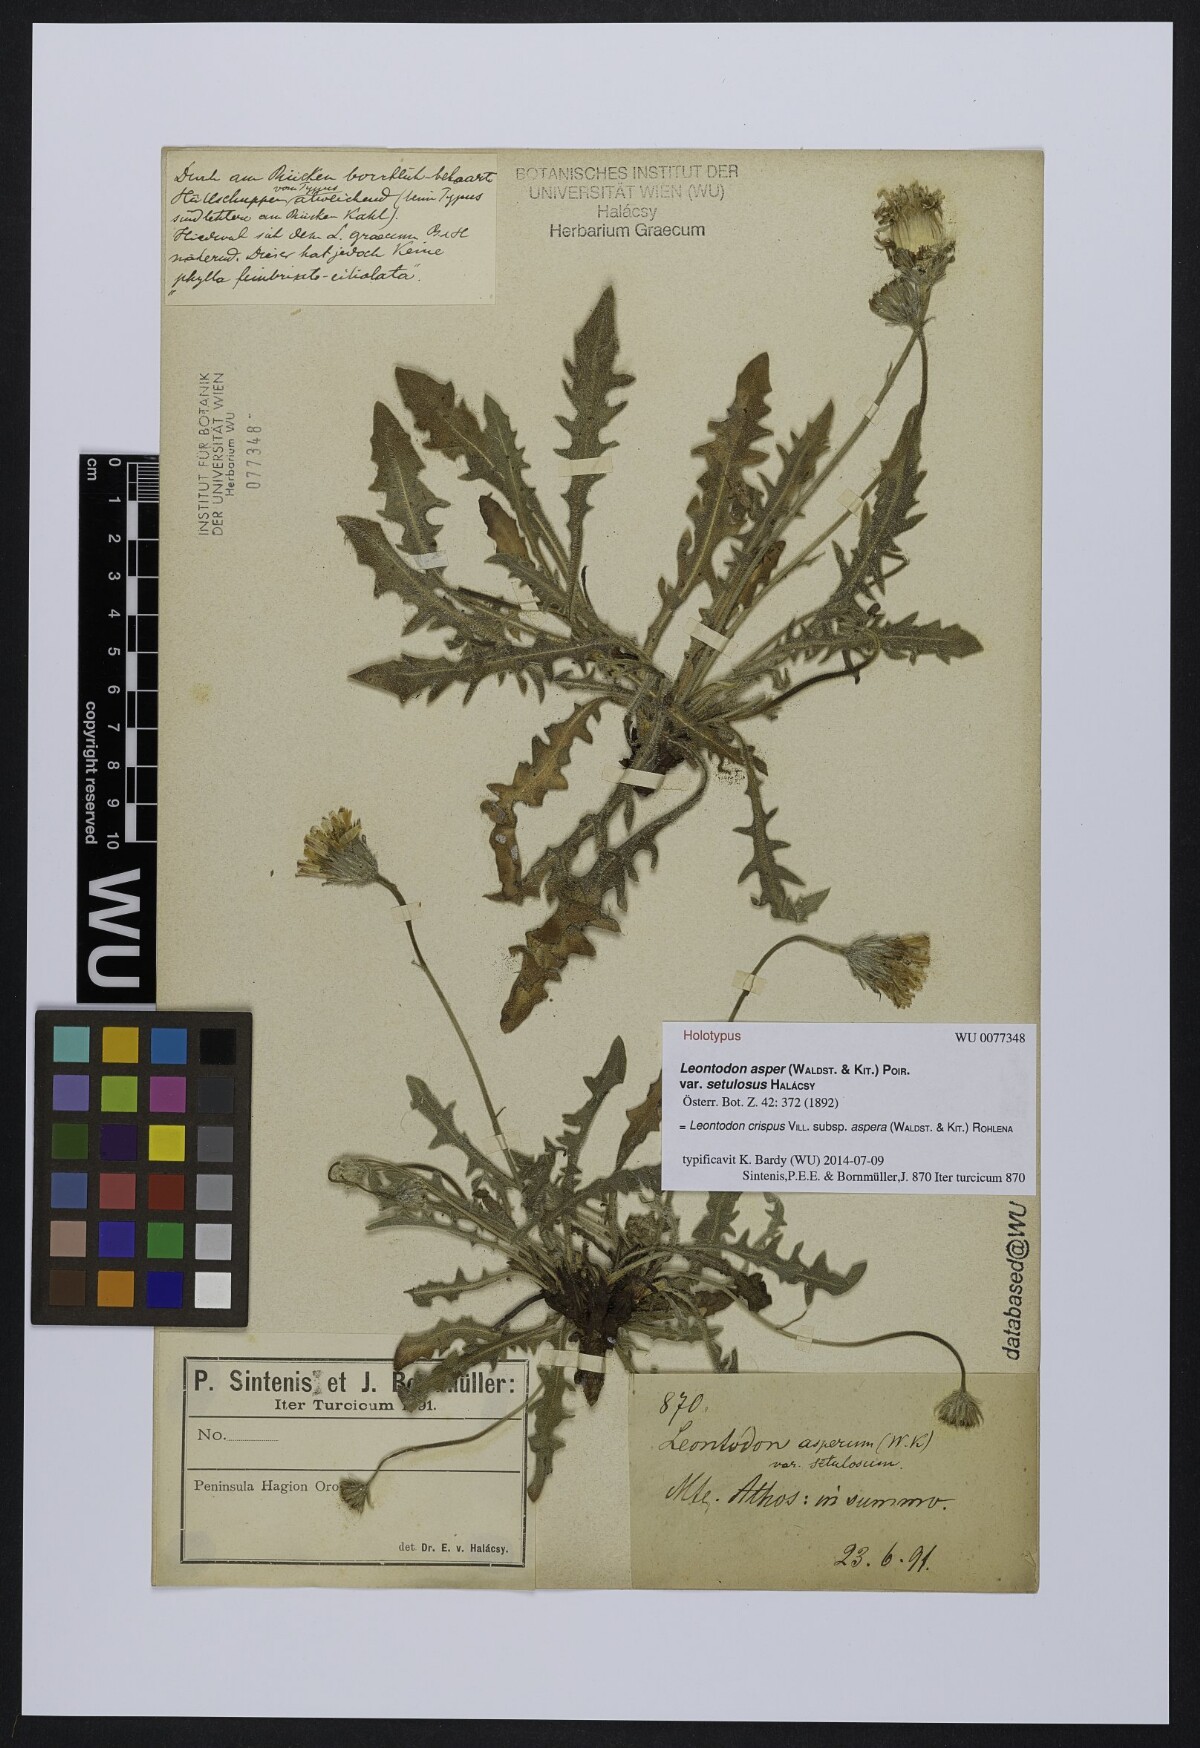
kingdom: Plantae
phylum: Tracheophyta
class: Magnoliopsida
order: Asterales
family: Asteraceae
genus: Leontodon
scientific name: Leontodon biscutellifolius
